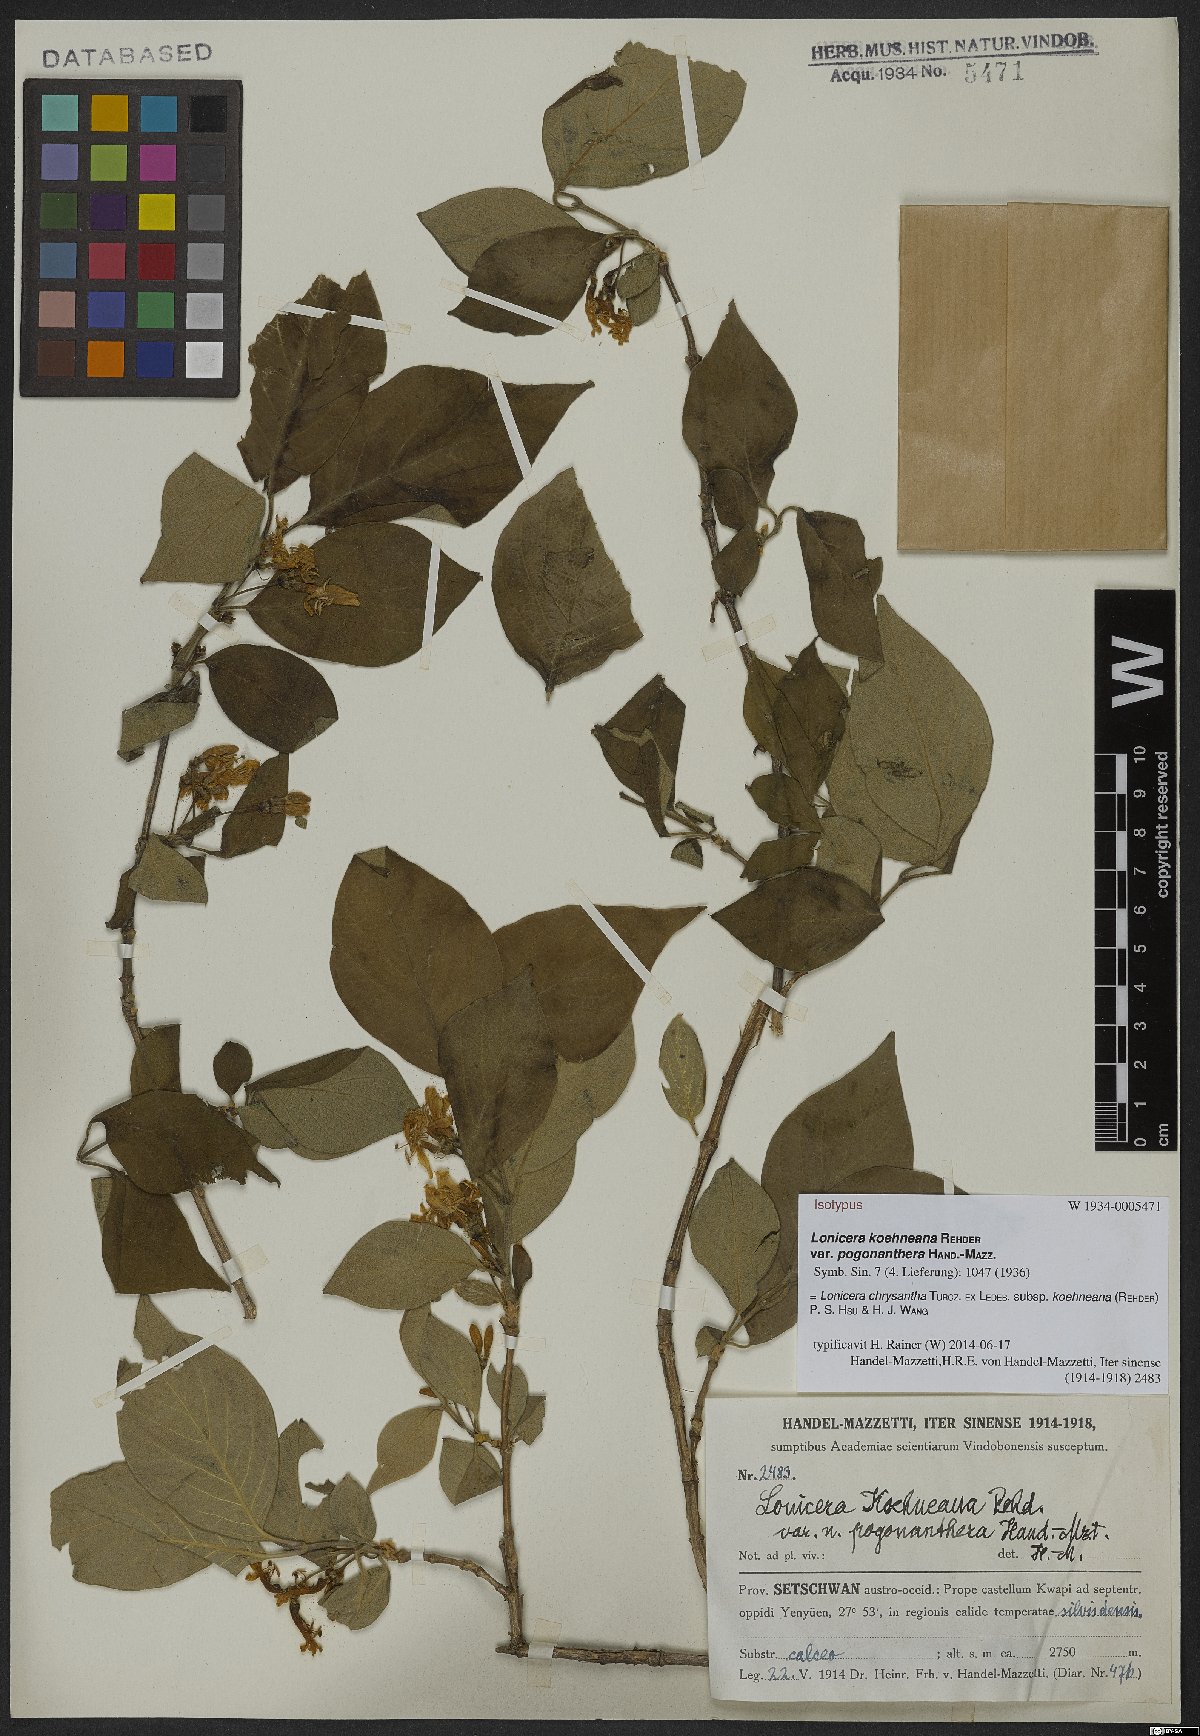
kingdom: Plantae
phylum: Tracheophyta
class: Magnoliopsida
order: Dipsacales
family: Caprifoliaceae
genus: Lonicera
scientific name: Lonicera chrysantha
